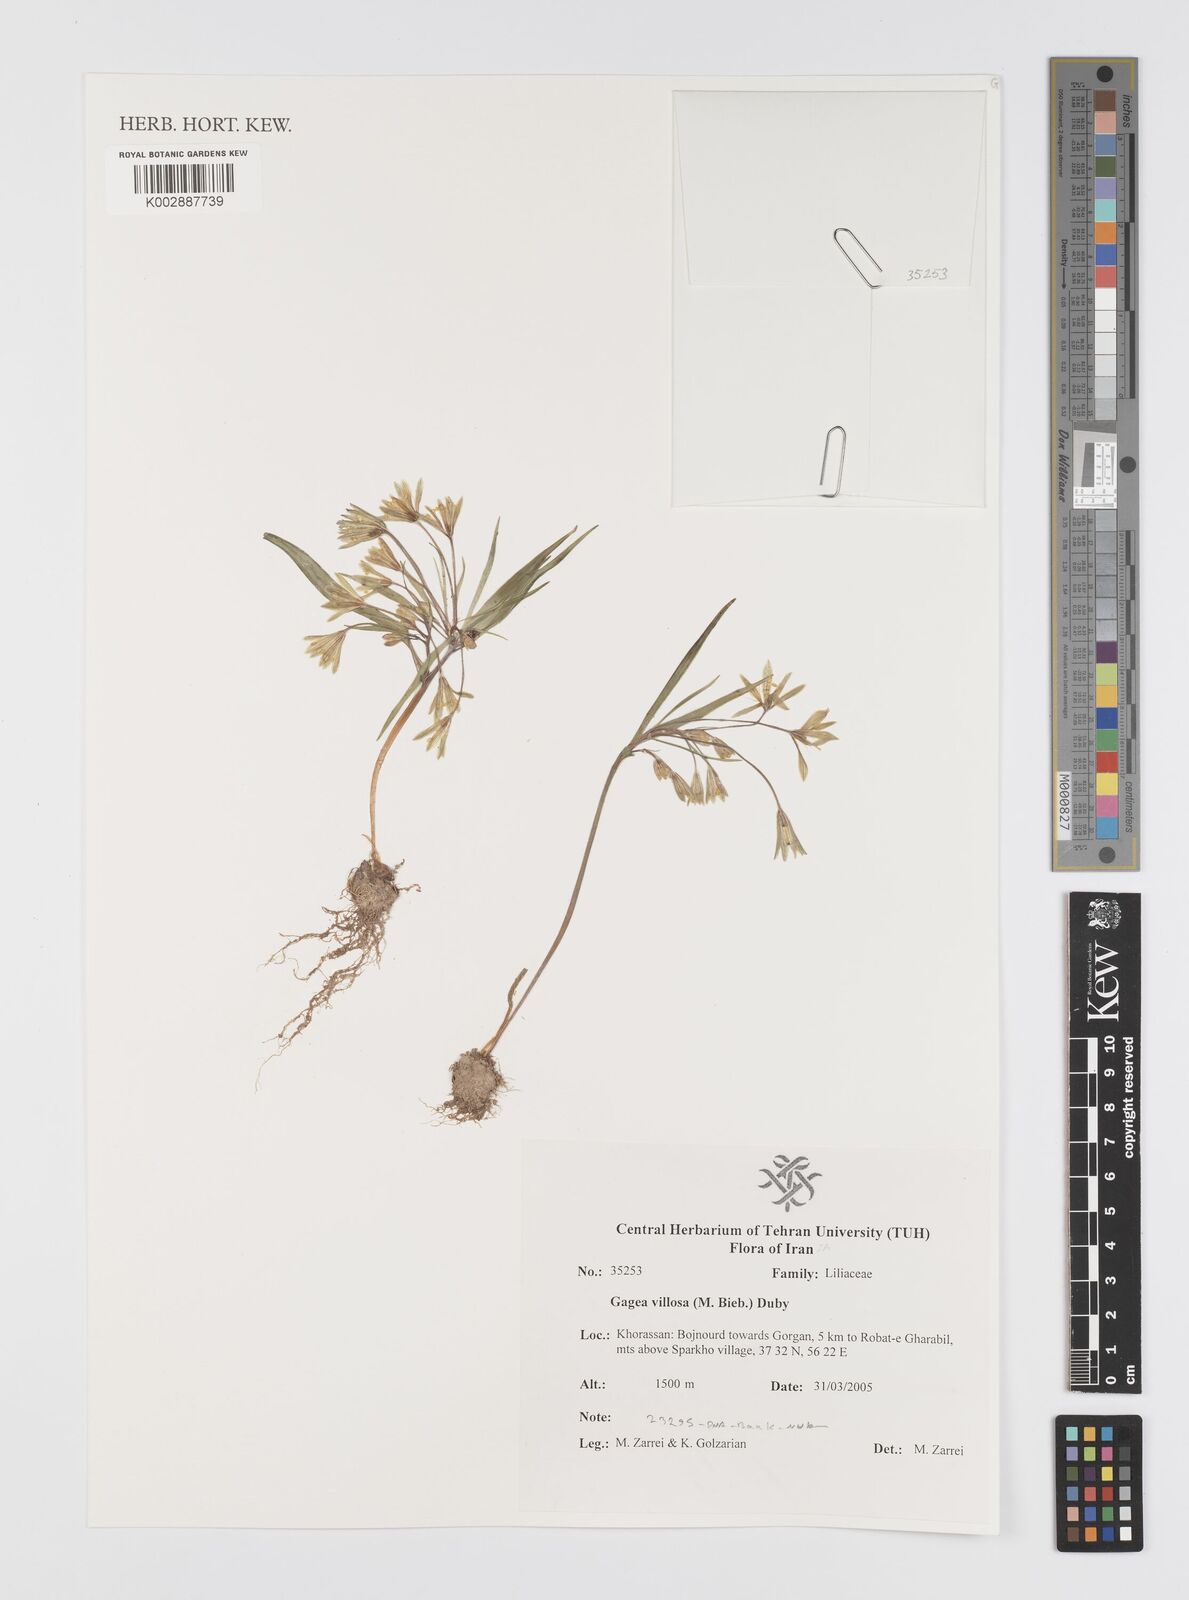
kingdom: Plantae
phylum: Tracheophyta
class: Liliopsida
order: Liliales
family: Liliaceae
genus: Gagea
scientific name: Gagea villosa
